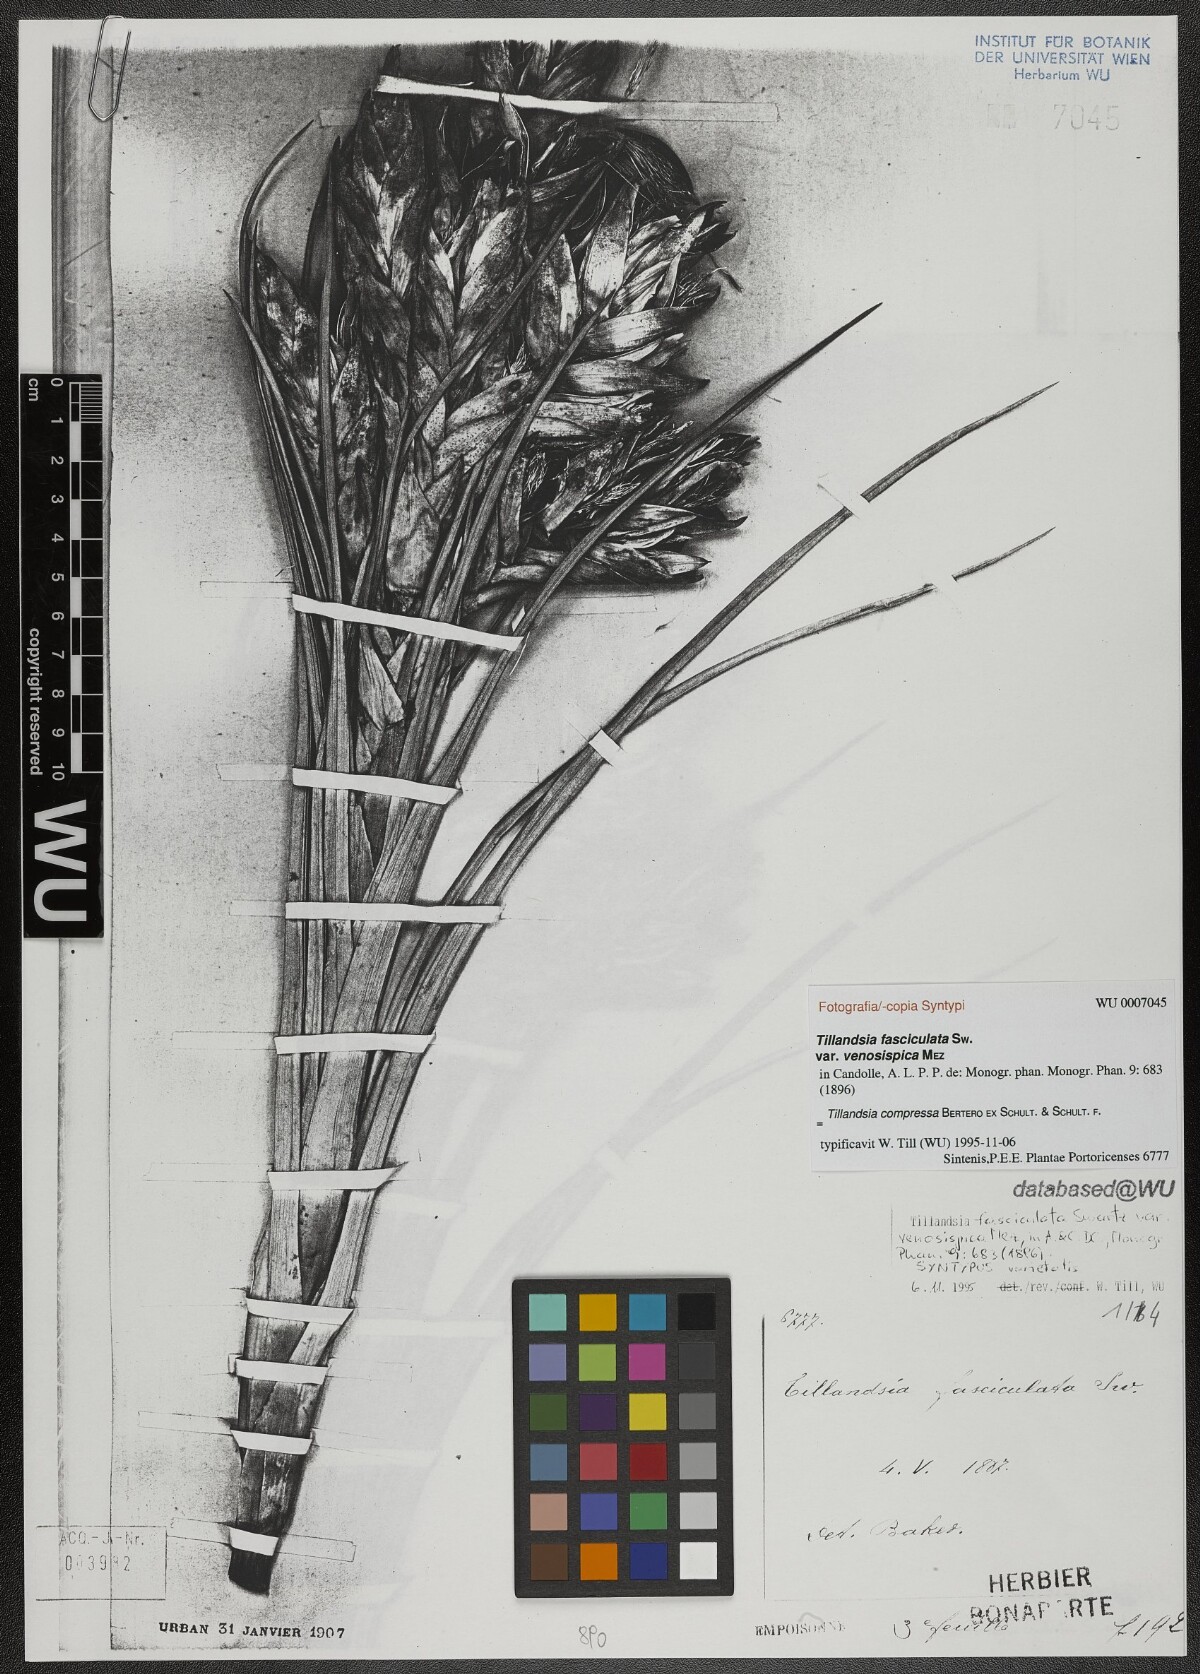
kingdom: Plantae
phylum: Tracheophyta
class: Liliopsida
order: Poales
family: Bromeliaceae
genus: Tillandsia
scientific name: Tillandsia compressa
